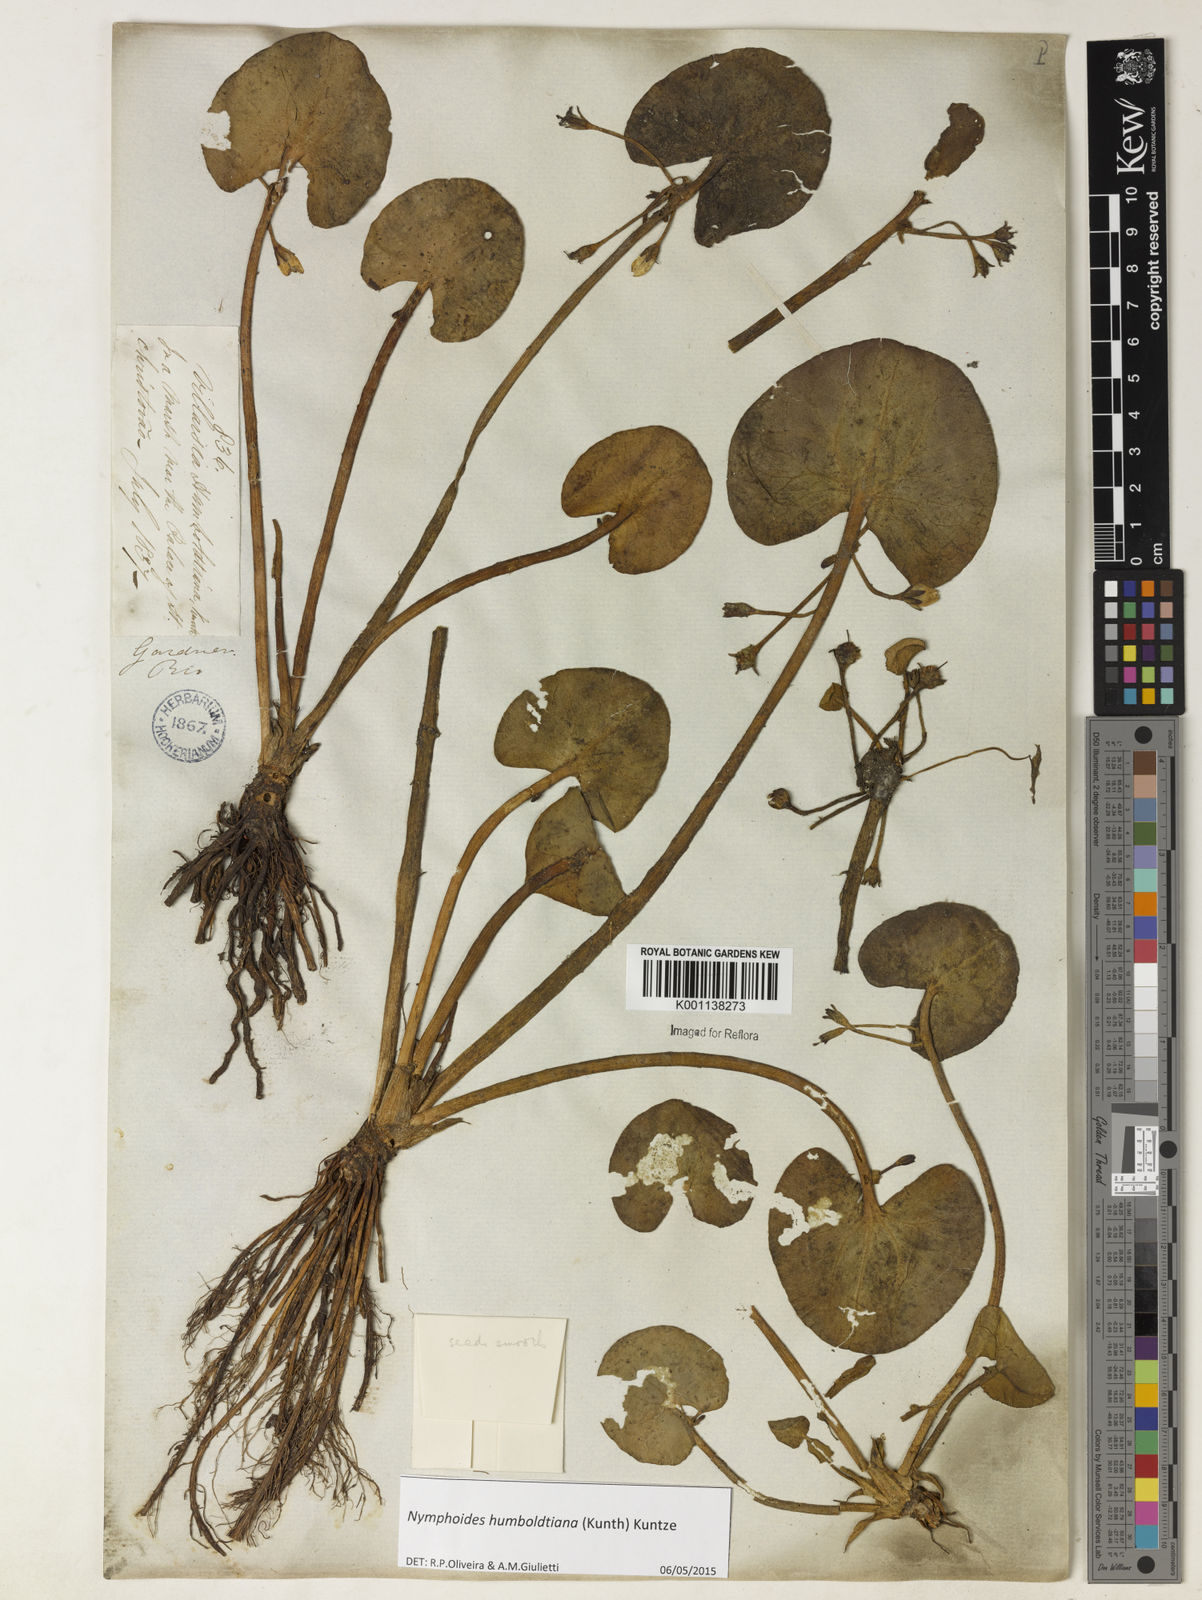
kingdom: Plantae
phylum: Tracheophyta
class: Magnoliopsida
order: Asterales
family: Menyanthaceae
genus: Nymphoides
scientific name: Nymphoides humboldtiana
